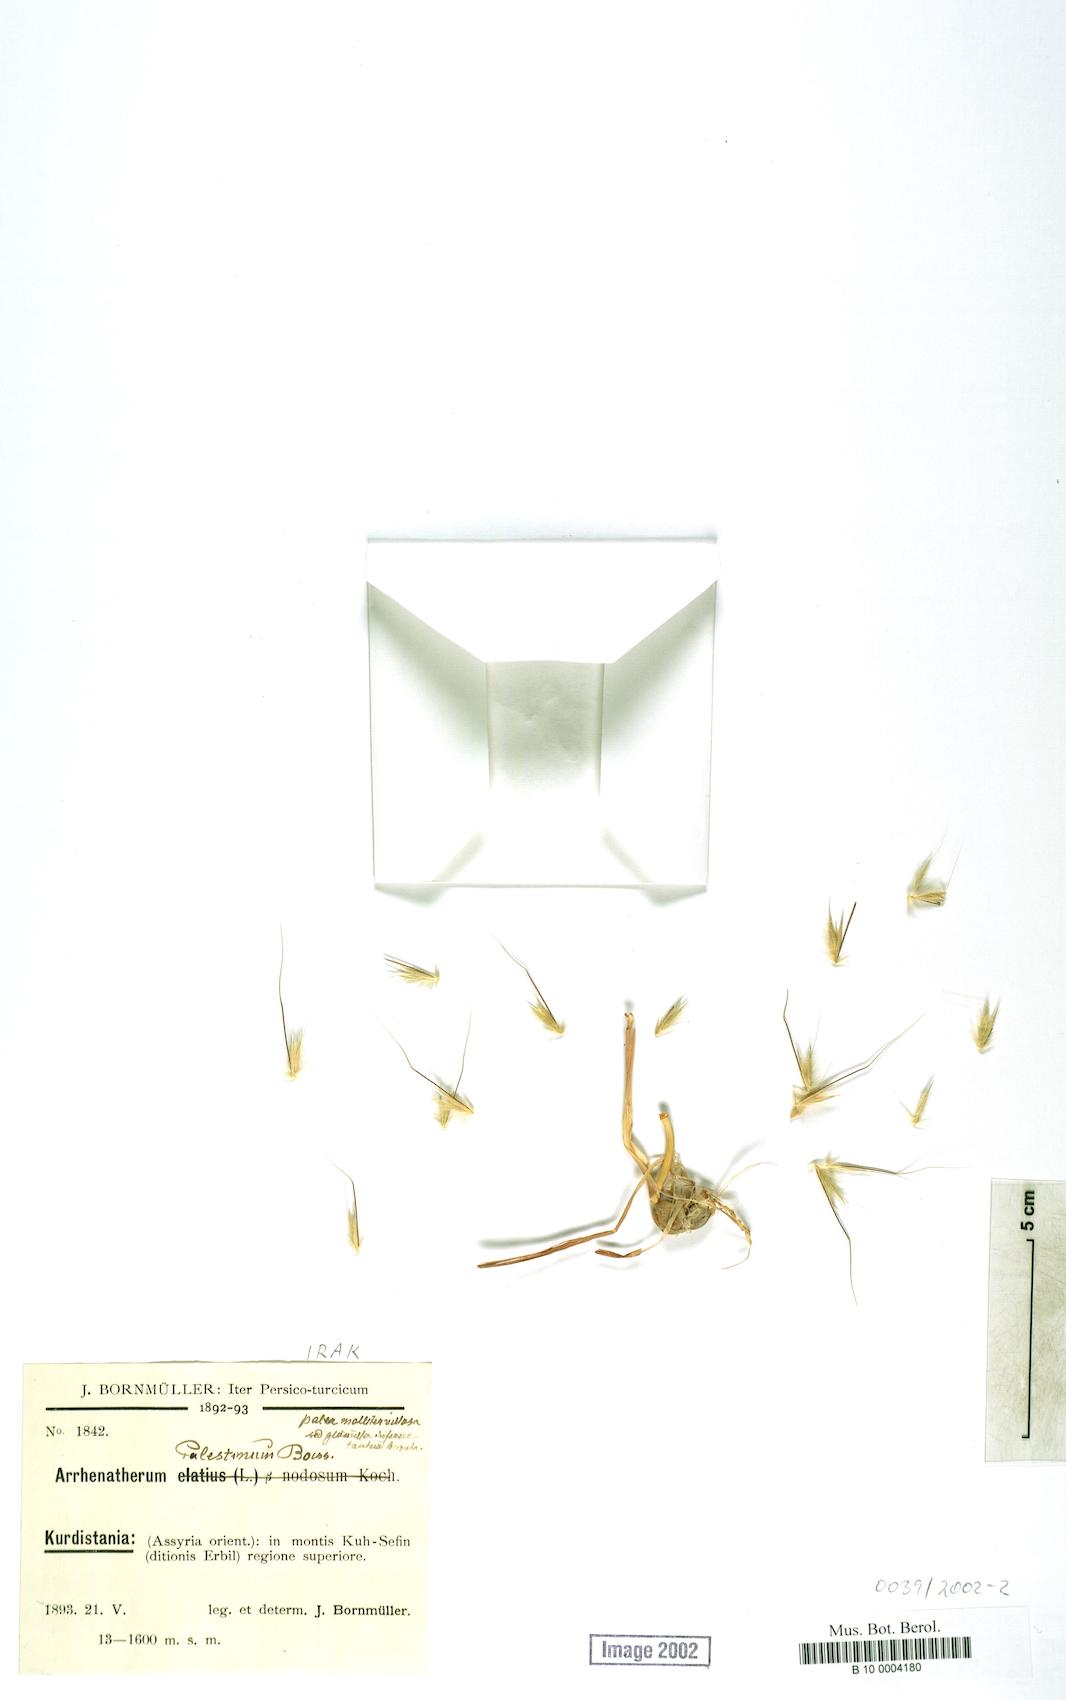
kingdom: Plantae
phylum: Tracheophyta
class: Liliopsida
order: Poales
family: Poaceae
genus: Arrhenatherum
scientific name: Arrhenatherum palaestinum
